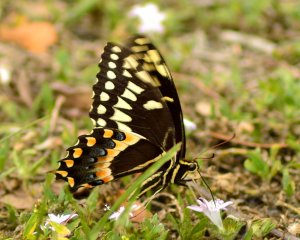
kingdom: Animalia
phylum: Arthropoda
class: Insecta
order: Lepidoptera
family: Papilionidae
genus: Pterourus
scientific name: Pterourus palamedes
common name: Palamedes Swallowtail
